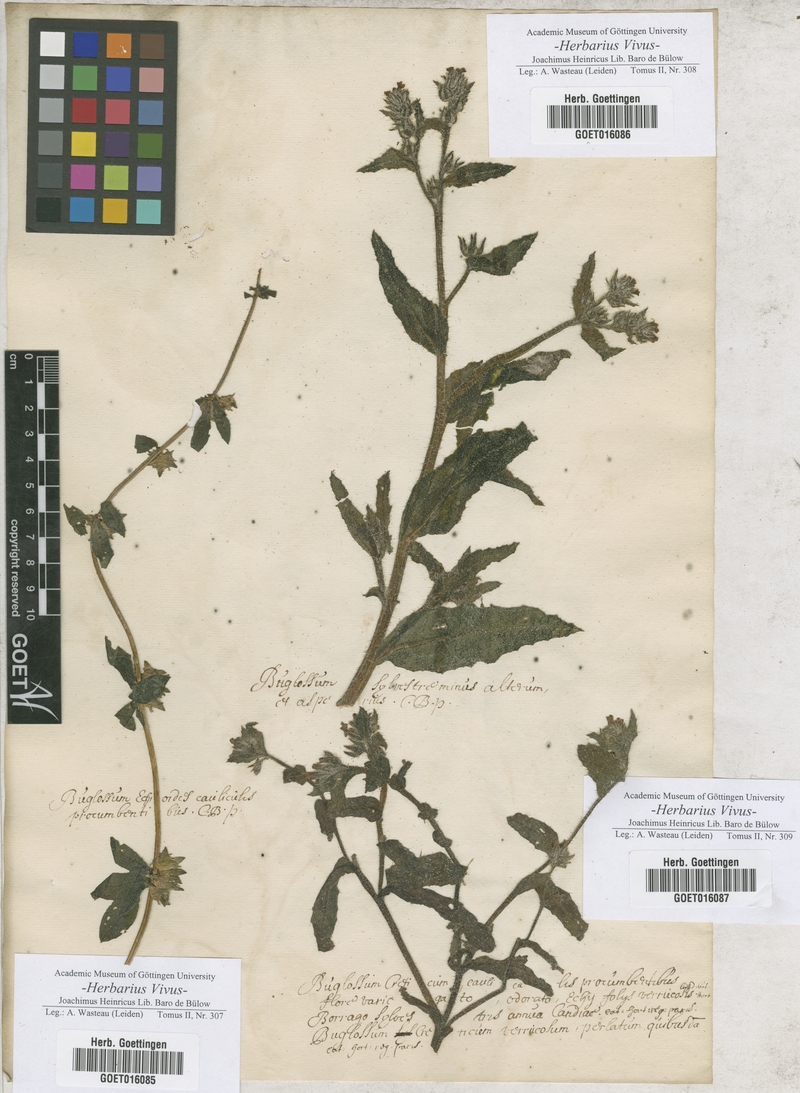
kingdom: Plantae
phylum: Tracheophyta
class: Magnoliopsida
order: Boraginales
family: Boraginaceae
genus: Buglossum
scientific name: Buglossum
